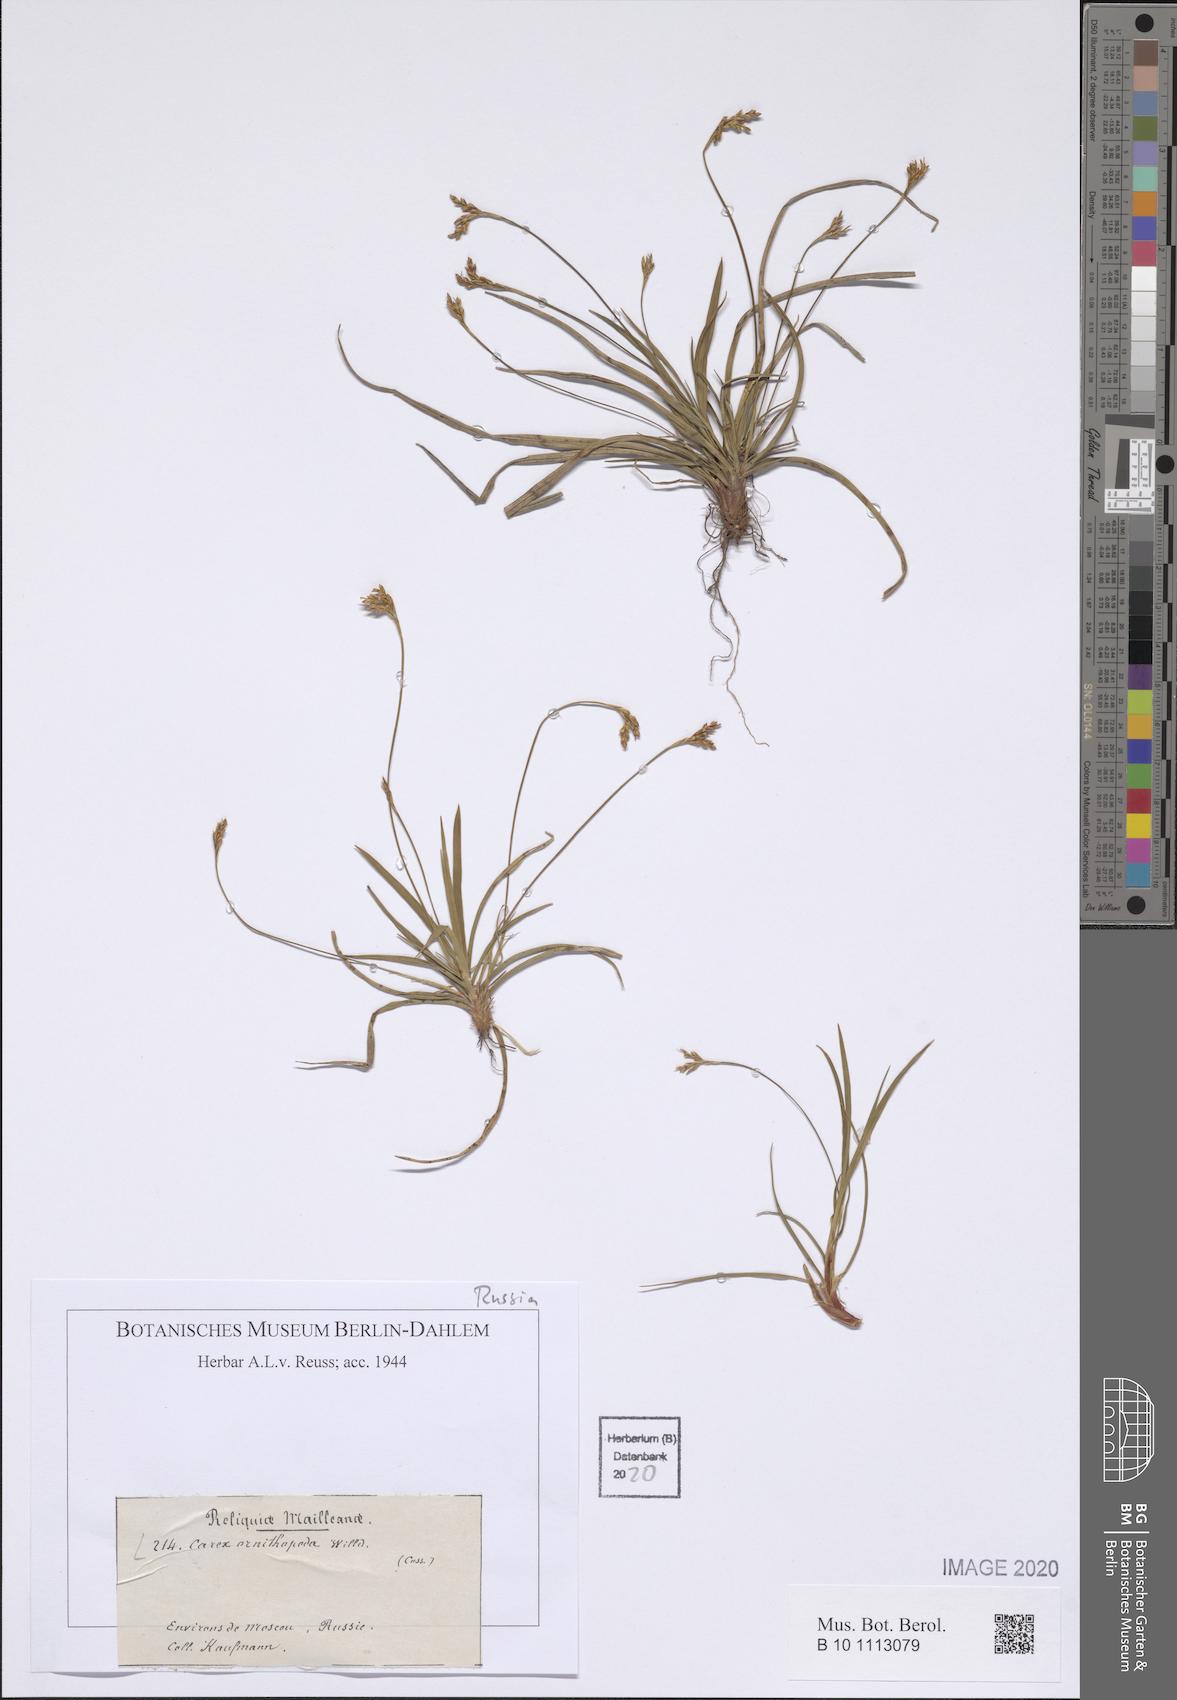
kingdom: Plantae
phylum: Tracheophyta
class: Liliopsida
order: Poales
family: Cyperaceae
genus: Carex
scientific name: Carex ornithopoda
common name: Bird's-foot sedge
